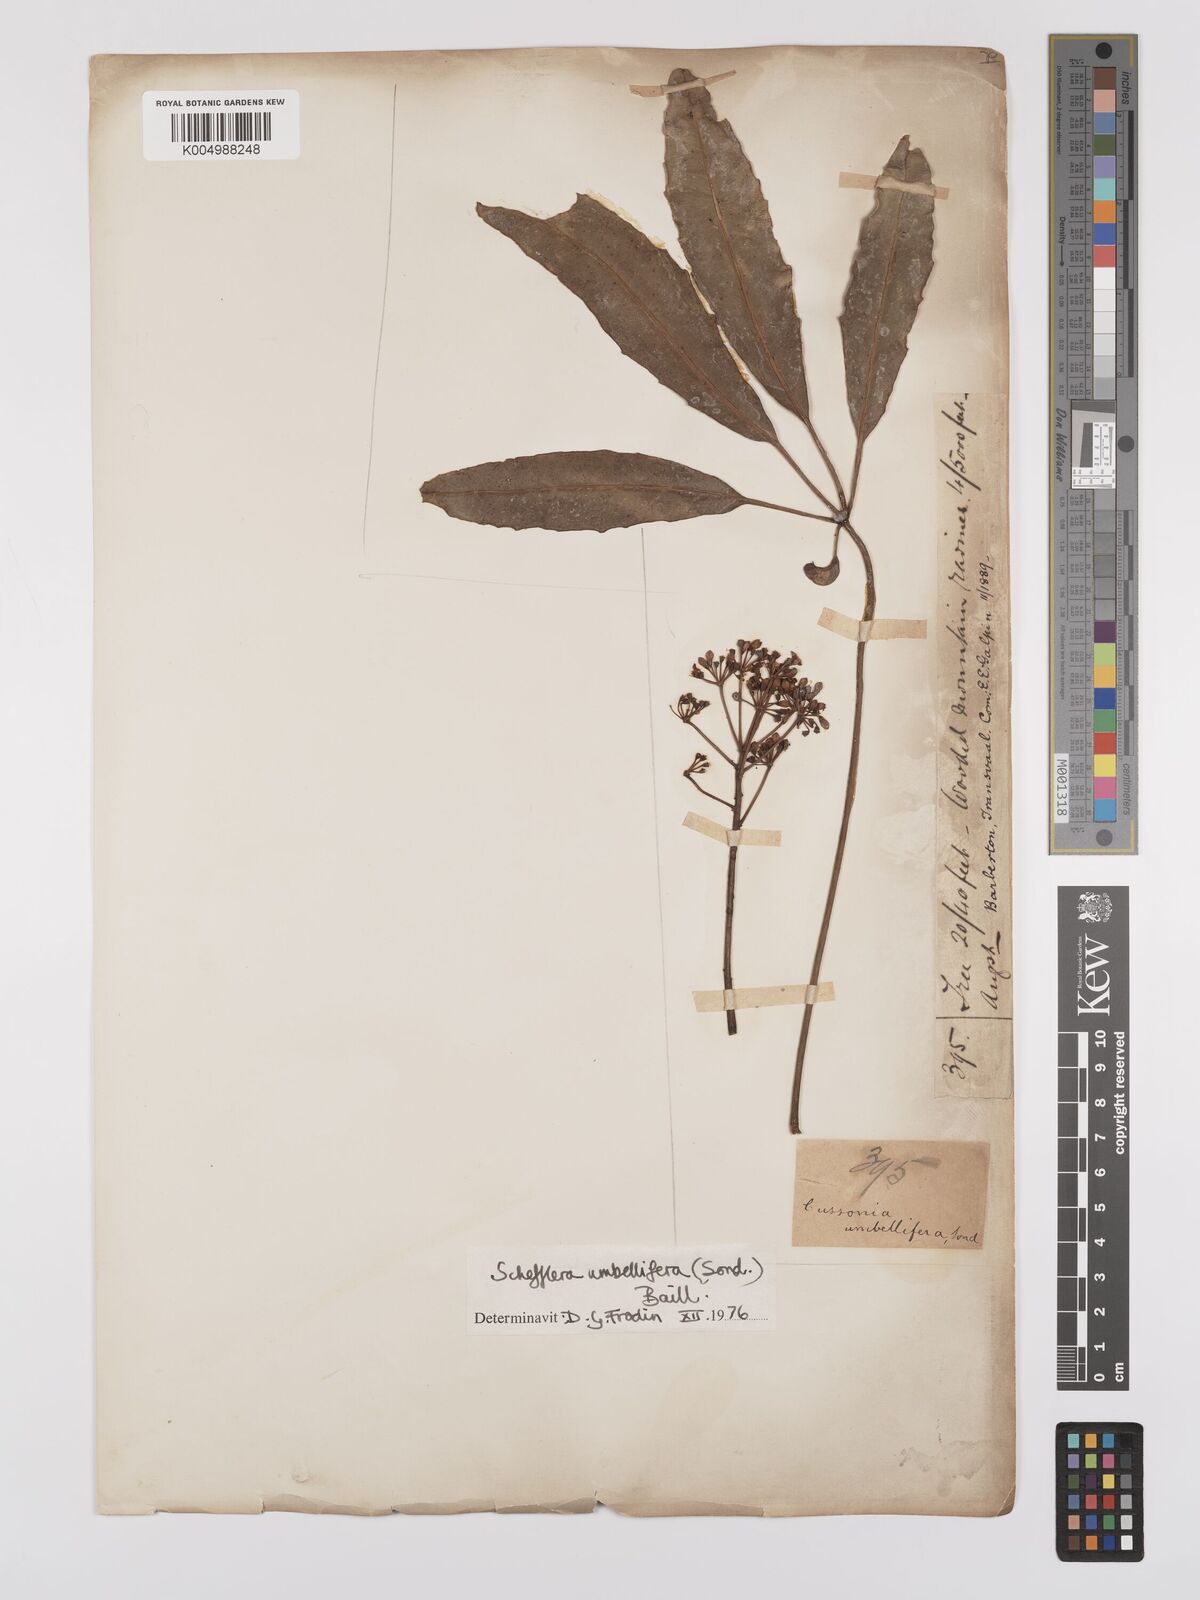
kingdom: Plantae
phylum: Tracheophyta
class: Magnoliopsida
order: Apiales
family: Araliaceae
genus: Neocussonia
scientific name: Neocussonia umbellifera
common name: False cabbage tree
